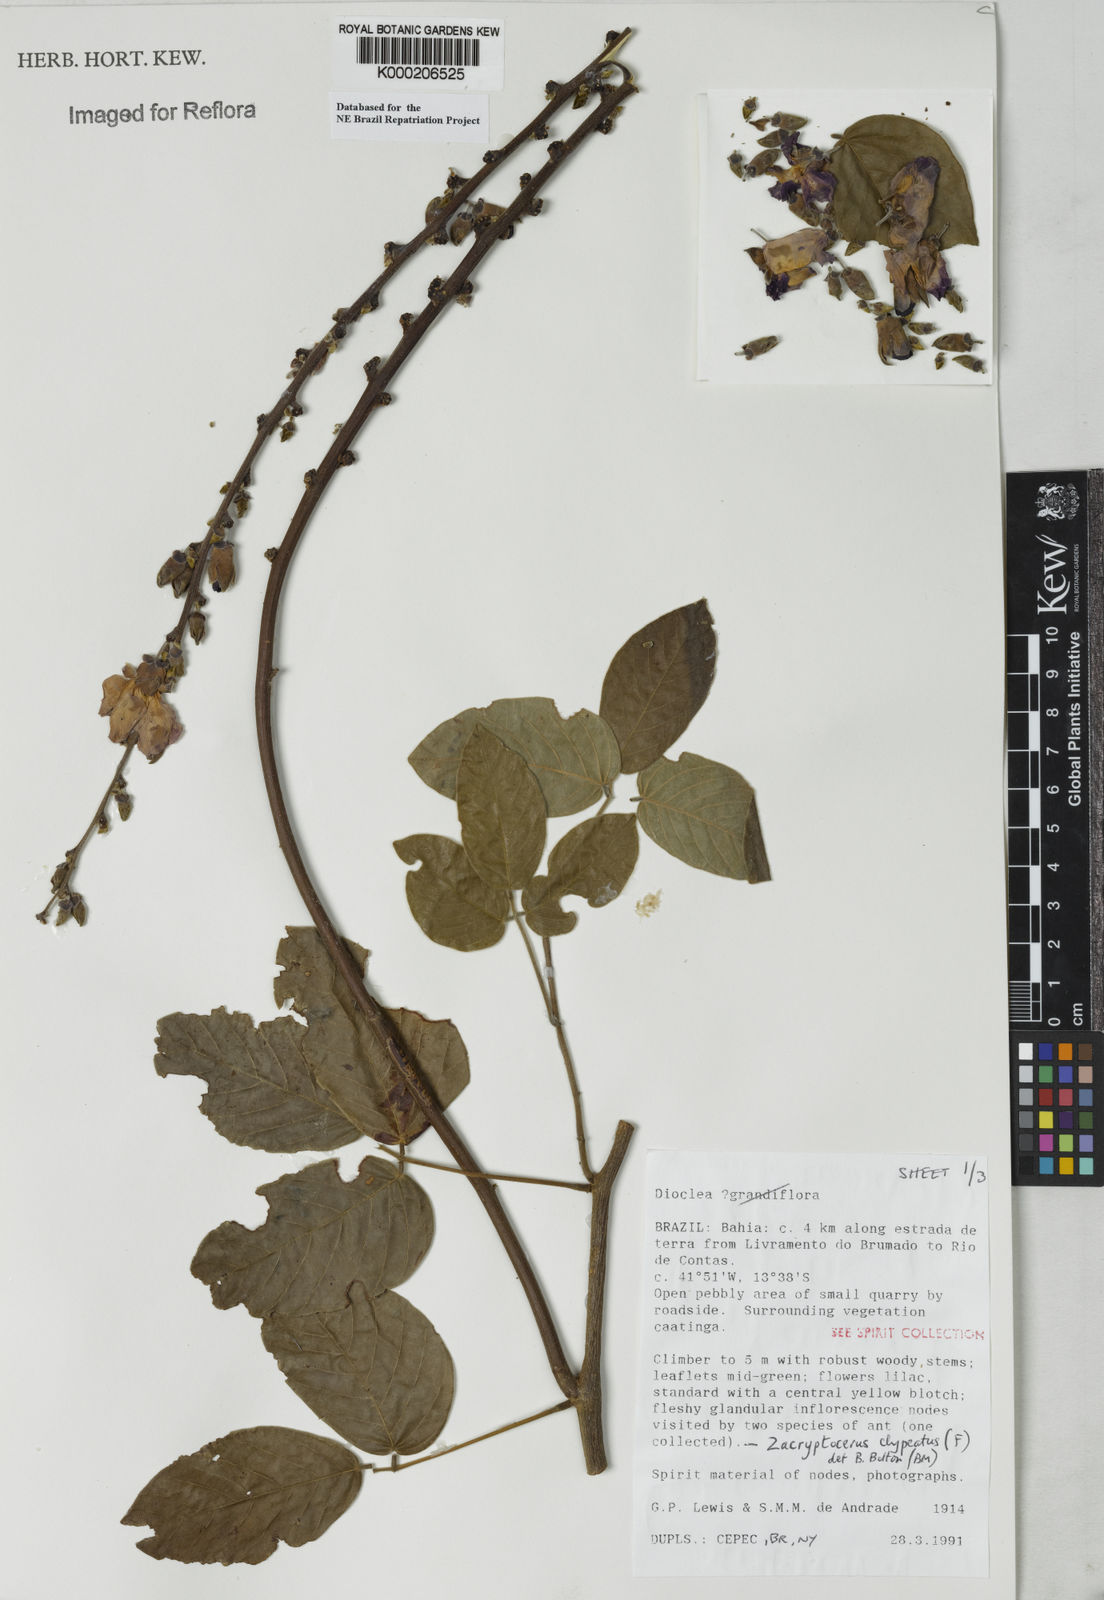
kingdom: Plantae
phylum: Tracheophyta
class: Magnoliopsida
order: Fabales
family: Fabaceae
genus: Dioclea
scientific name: Dioclea
